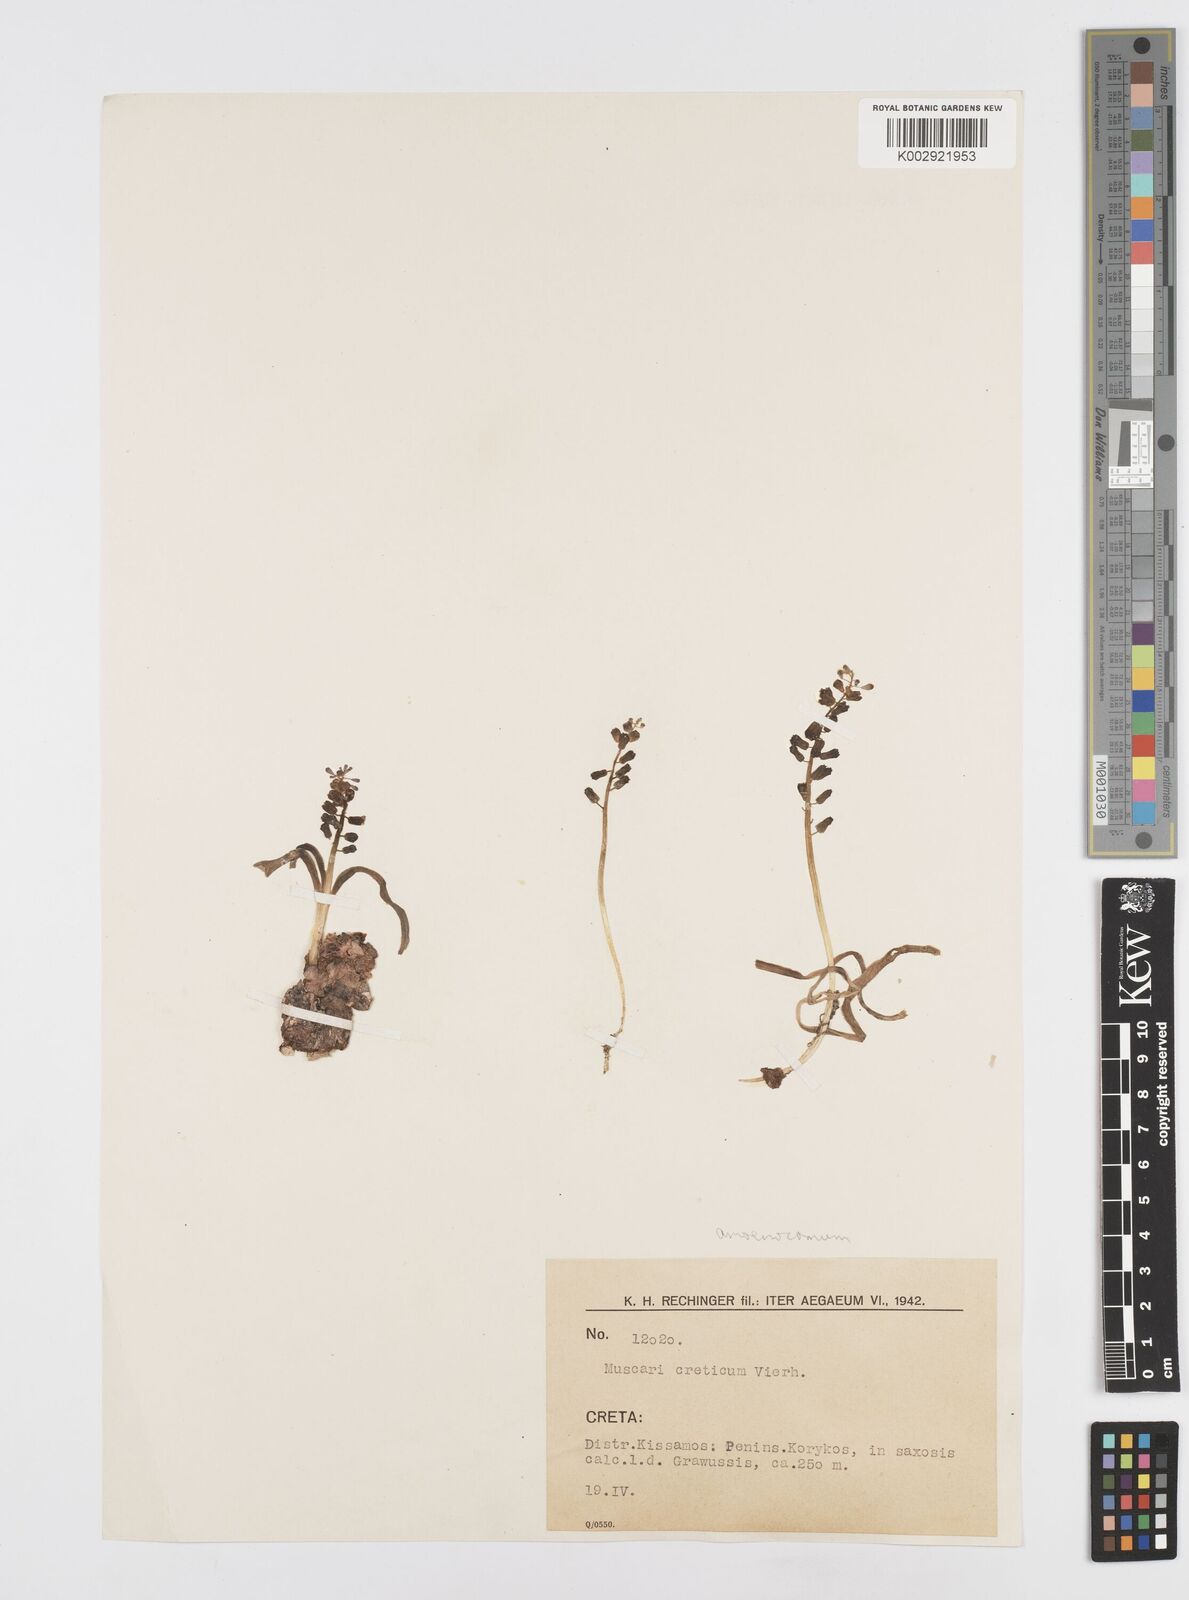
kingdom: Animalia
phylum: Mollusca
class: Cephalopoda
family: Neocomitidae
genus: Leopoldia
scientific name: Leopoldia
